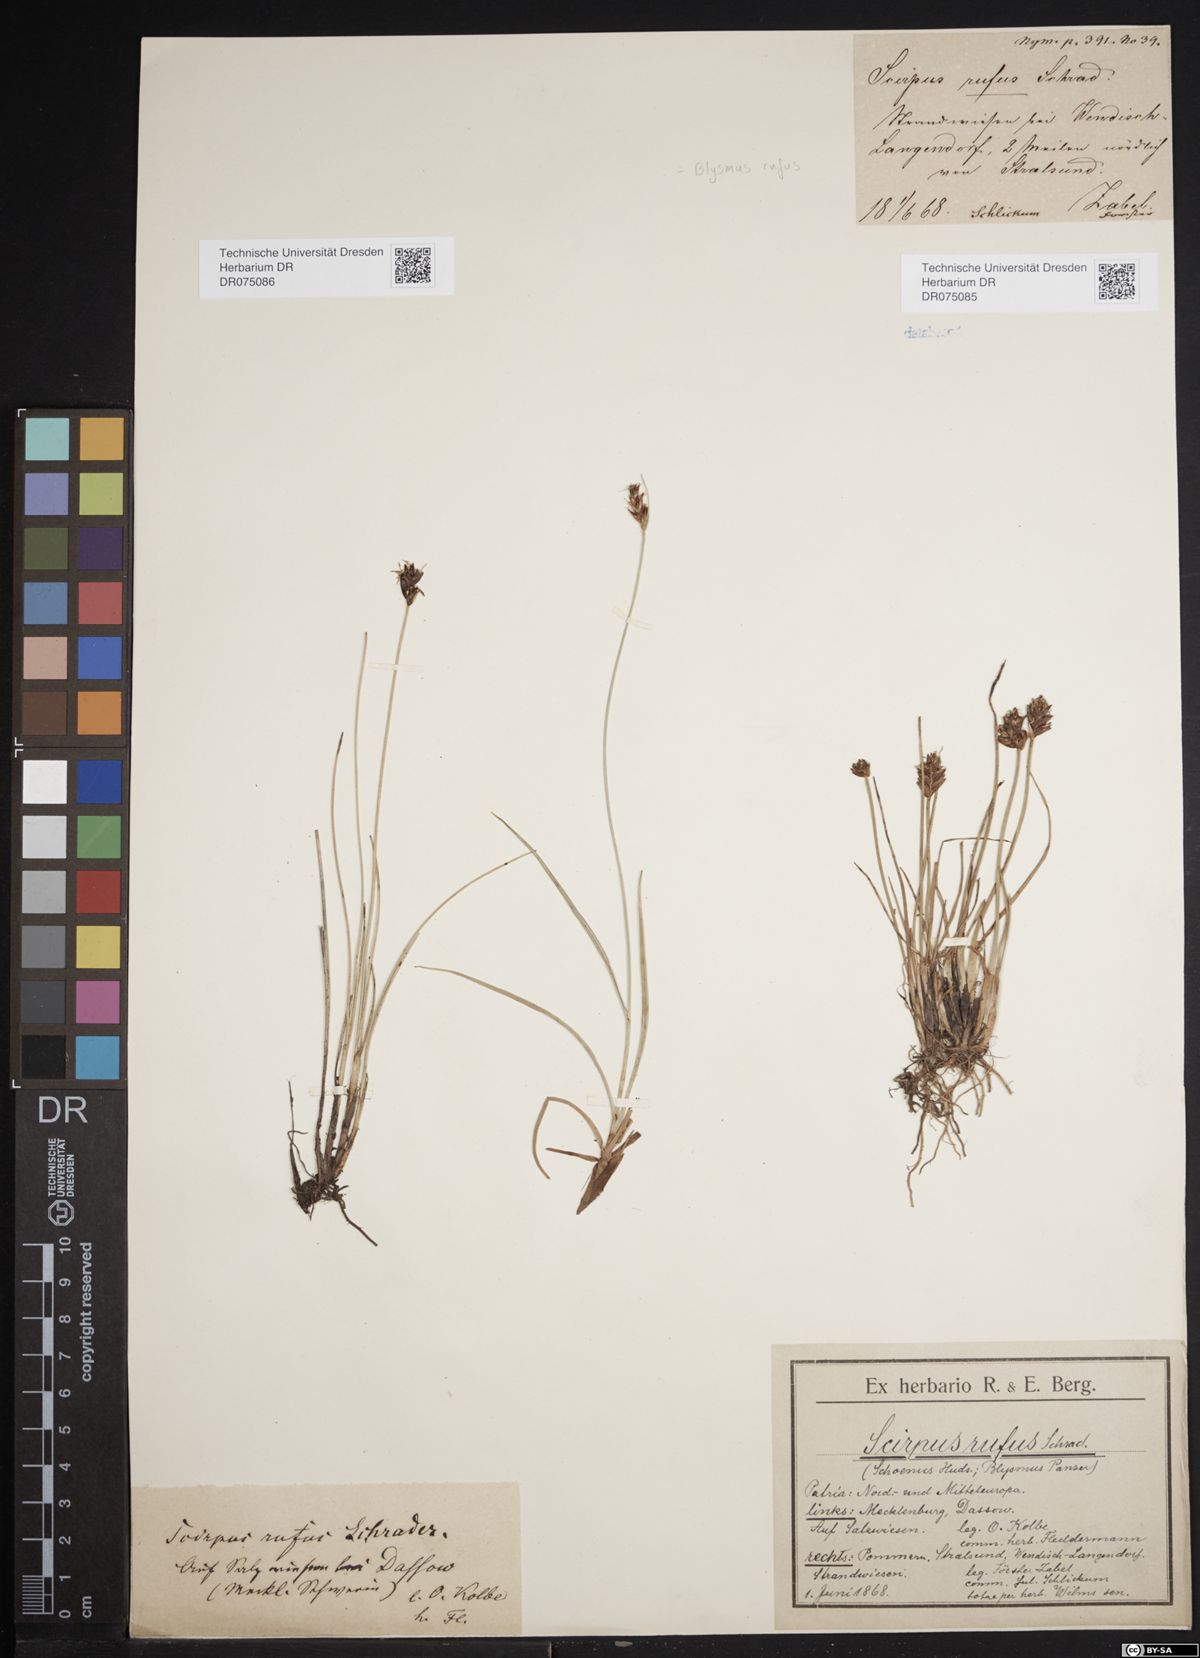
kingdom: Plantae
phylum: Tracheophyta
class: Liliopsida
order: Poales
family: Cyperaceae
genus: Blysmus
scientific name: Blysmus rufus
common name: Saltmarsh flat-sedge
